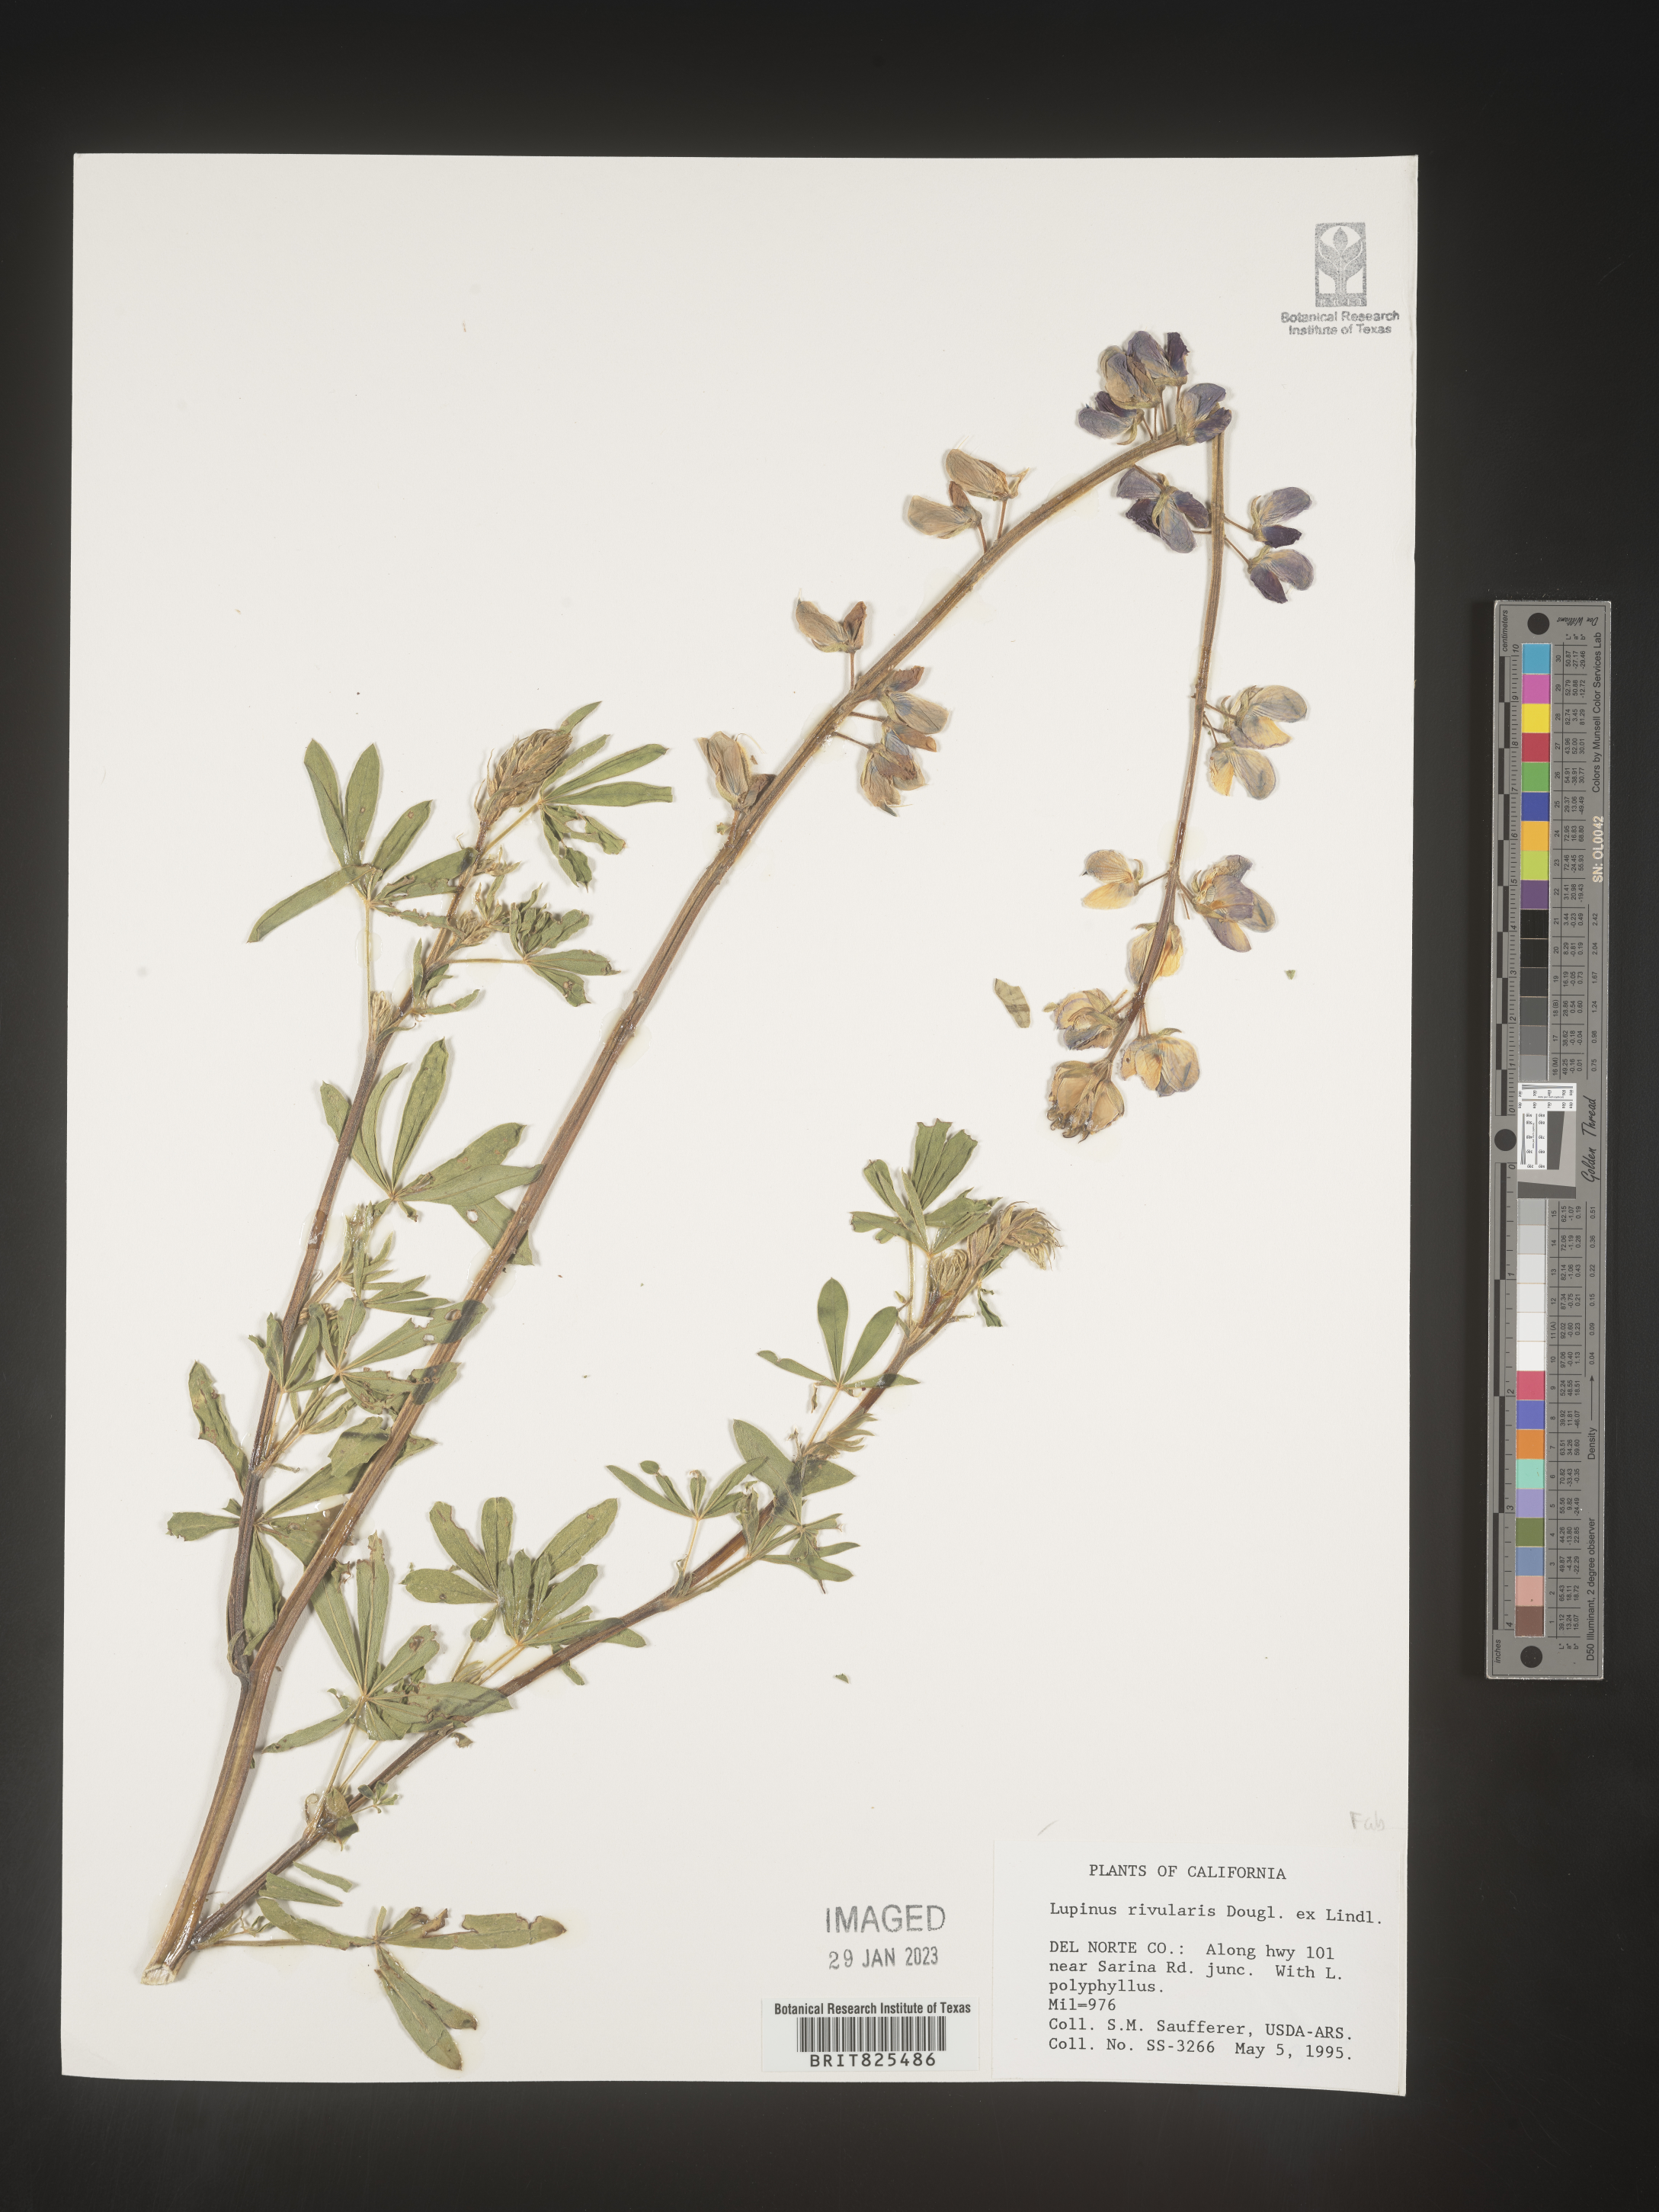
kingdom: Plantae
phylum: Tracheophyta
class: Magnoliopsida
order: Fabales
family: Fabaceae
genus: Lupinus
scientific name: Lupinus
